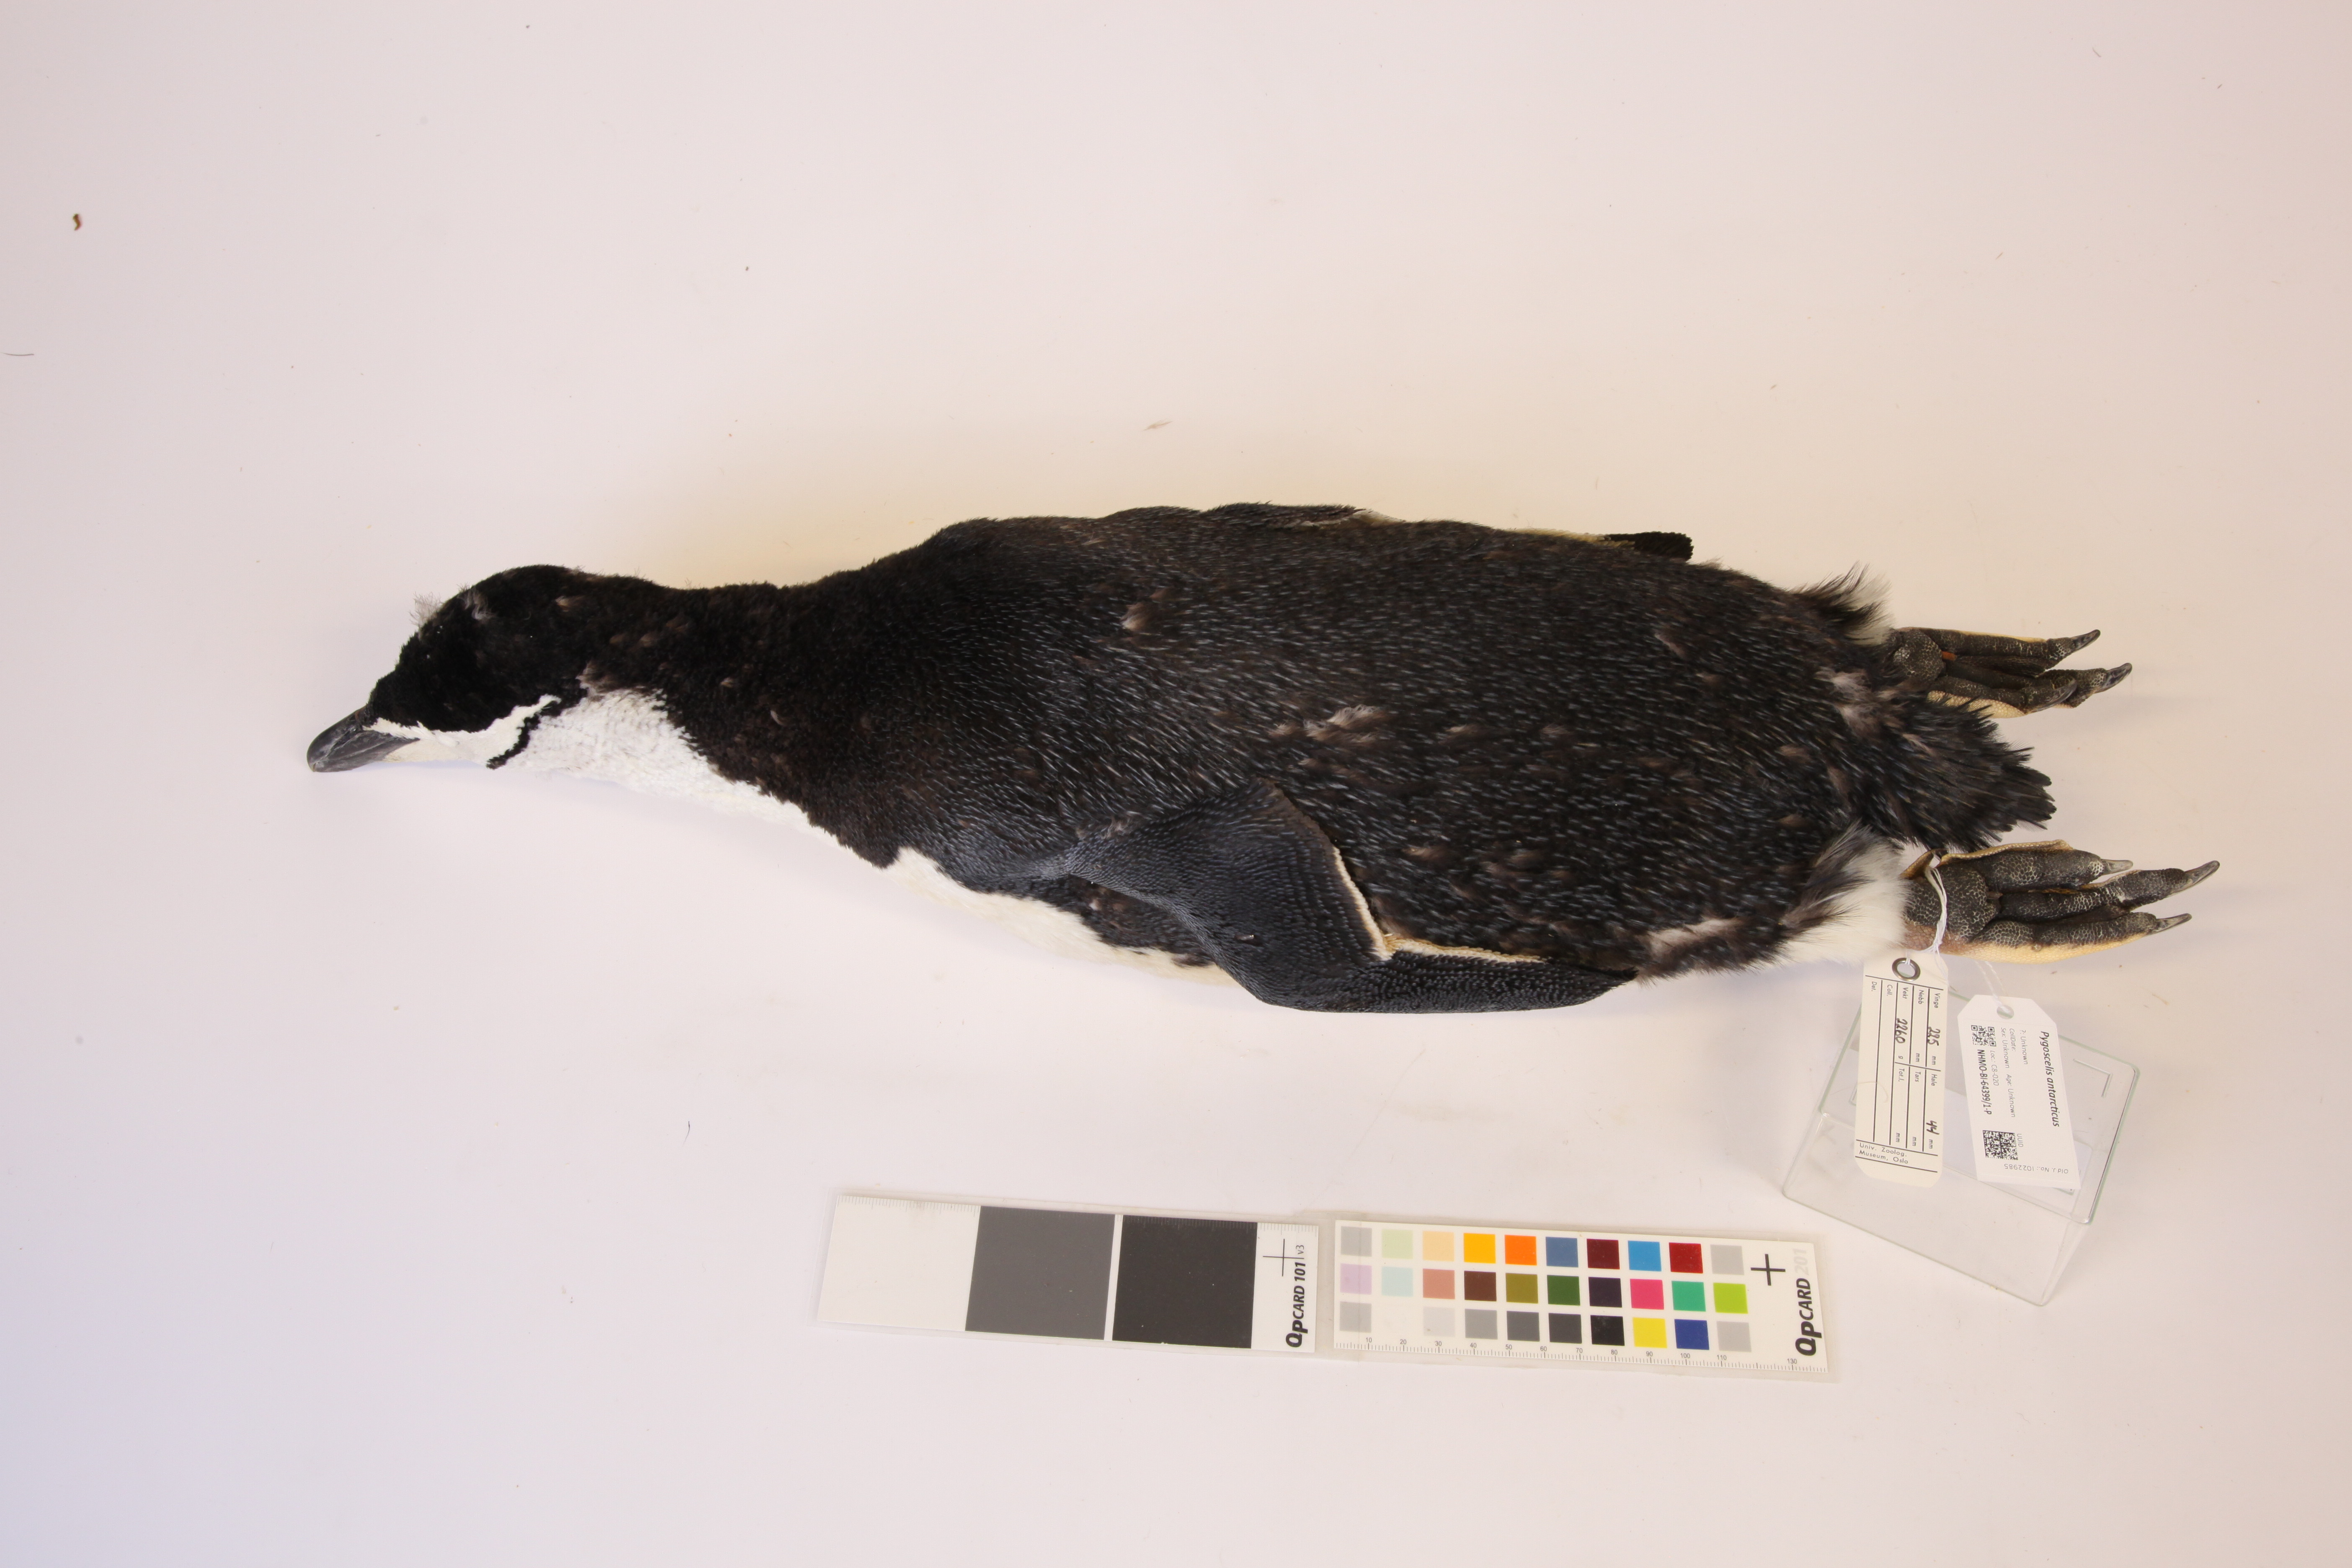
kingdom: Animalia
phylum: Chordata
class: Aves
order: Sphenisciformes
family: Spheniscidae
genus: Pygoscelis
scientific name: Pygoscelis antarcticus
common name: Chinstrap penguin
